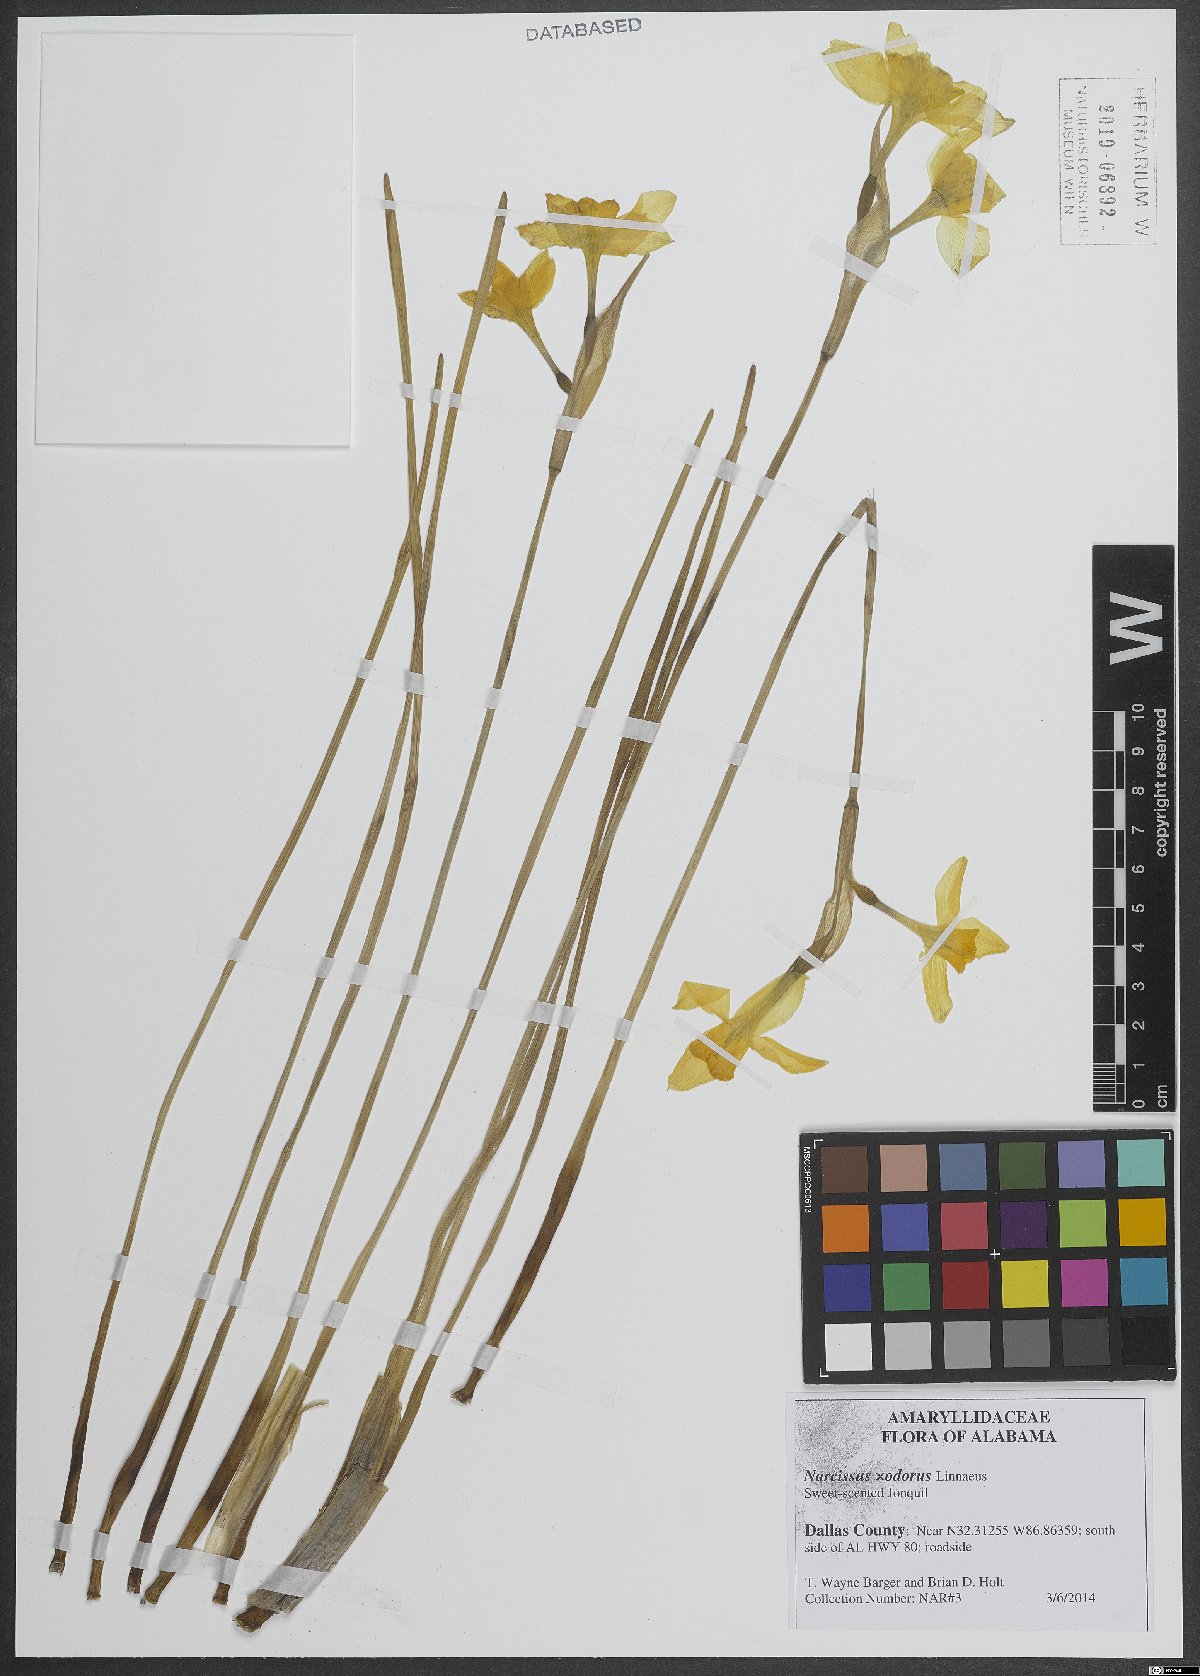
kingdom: Plantae
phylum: Tracheophyta
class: Liliopsida
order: Asparagales
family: Amaryllidaceae
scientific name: Amaryllidaceae
